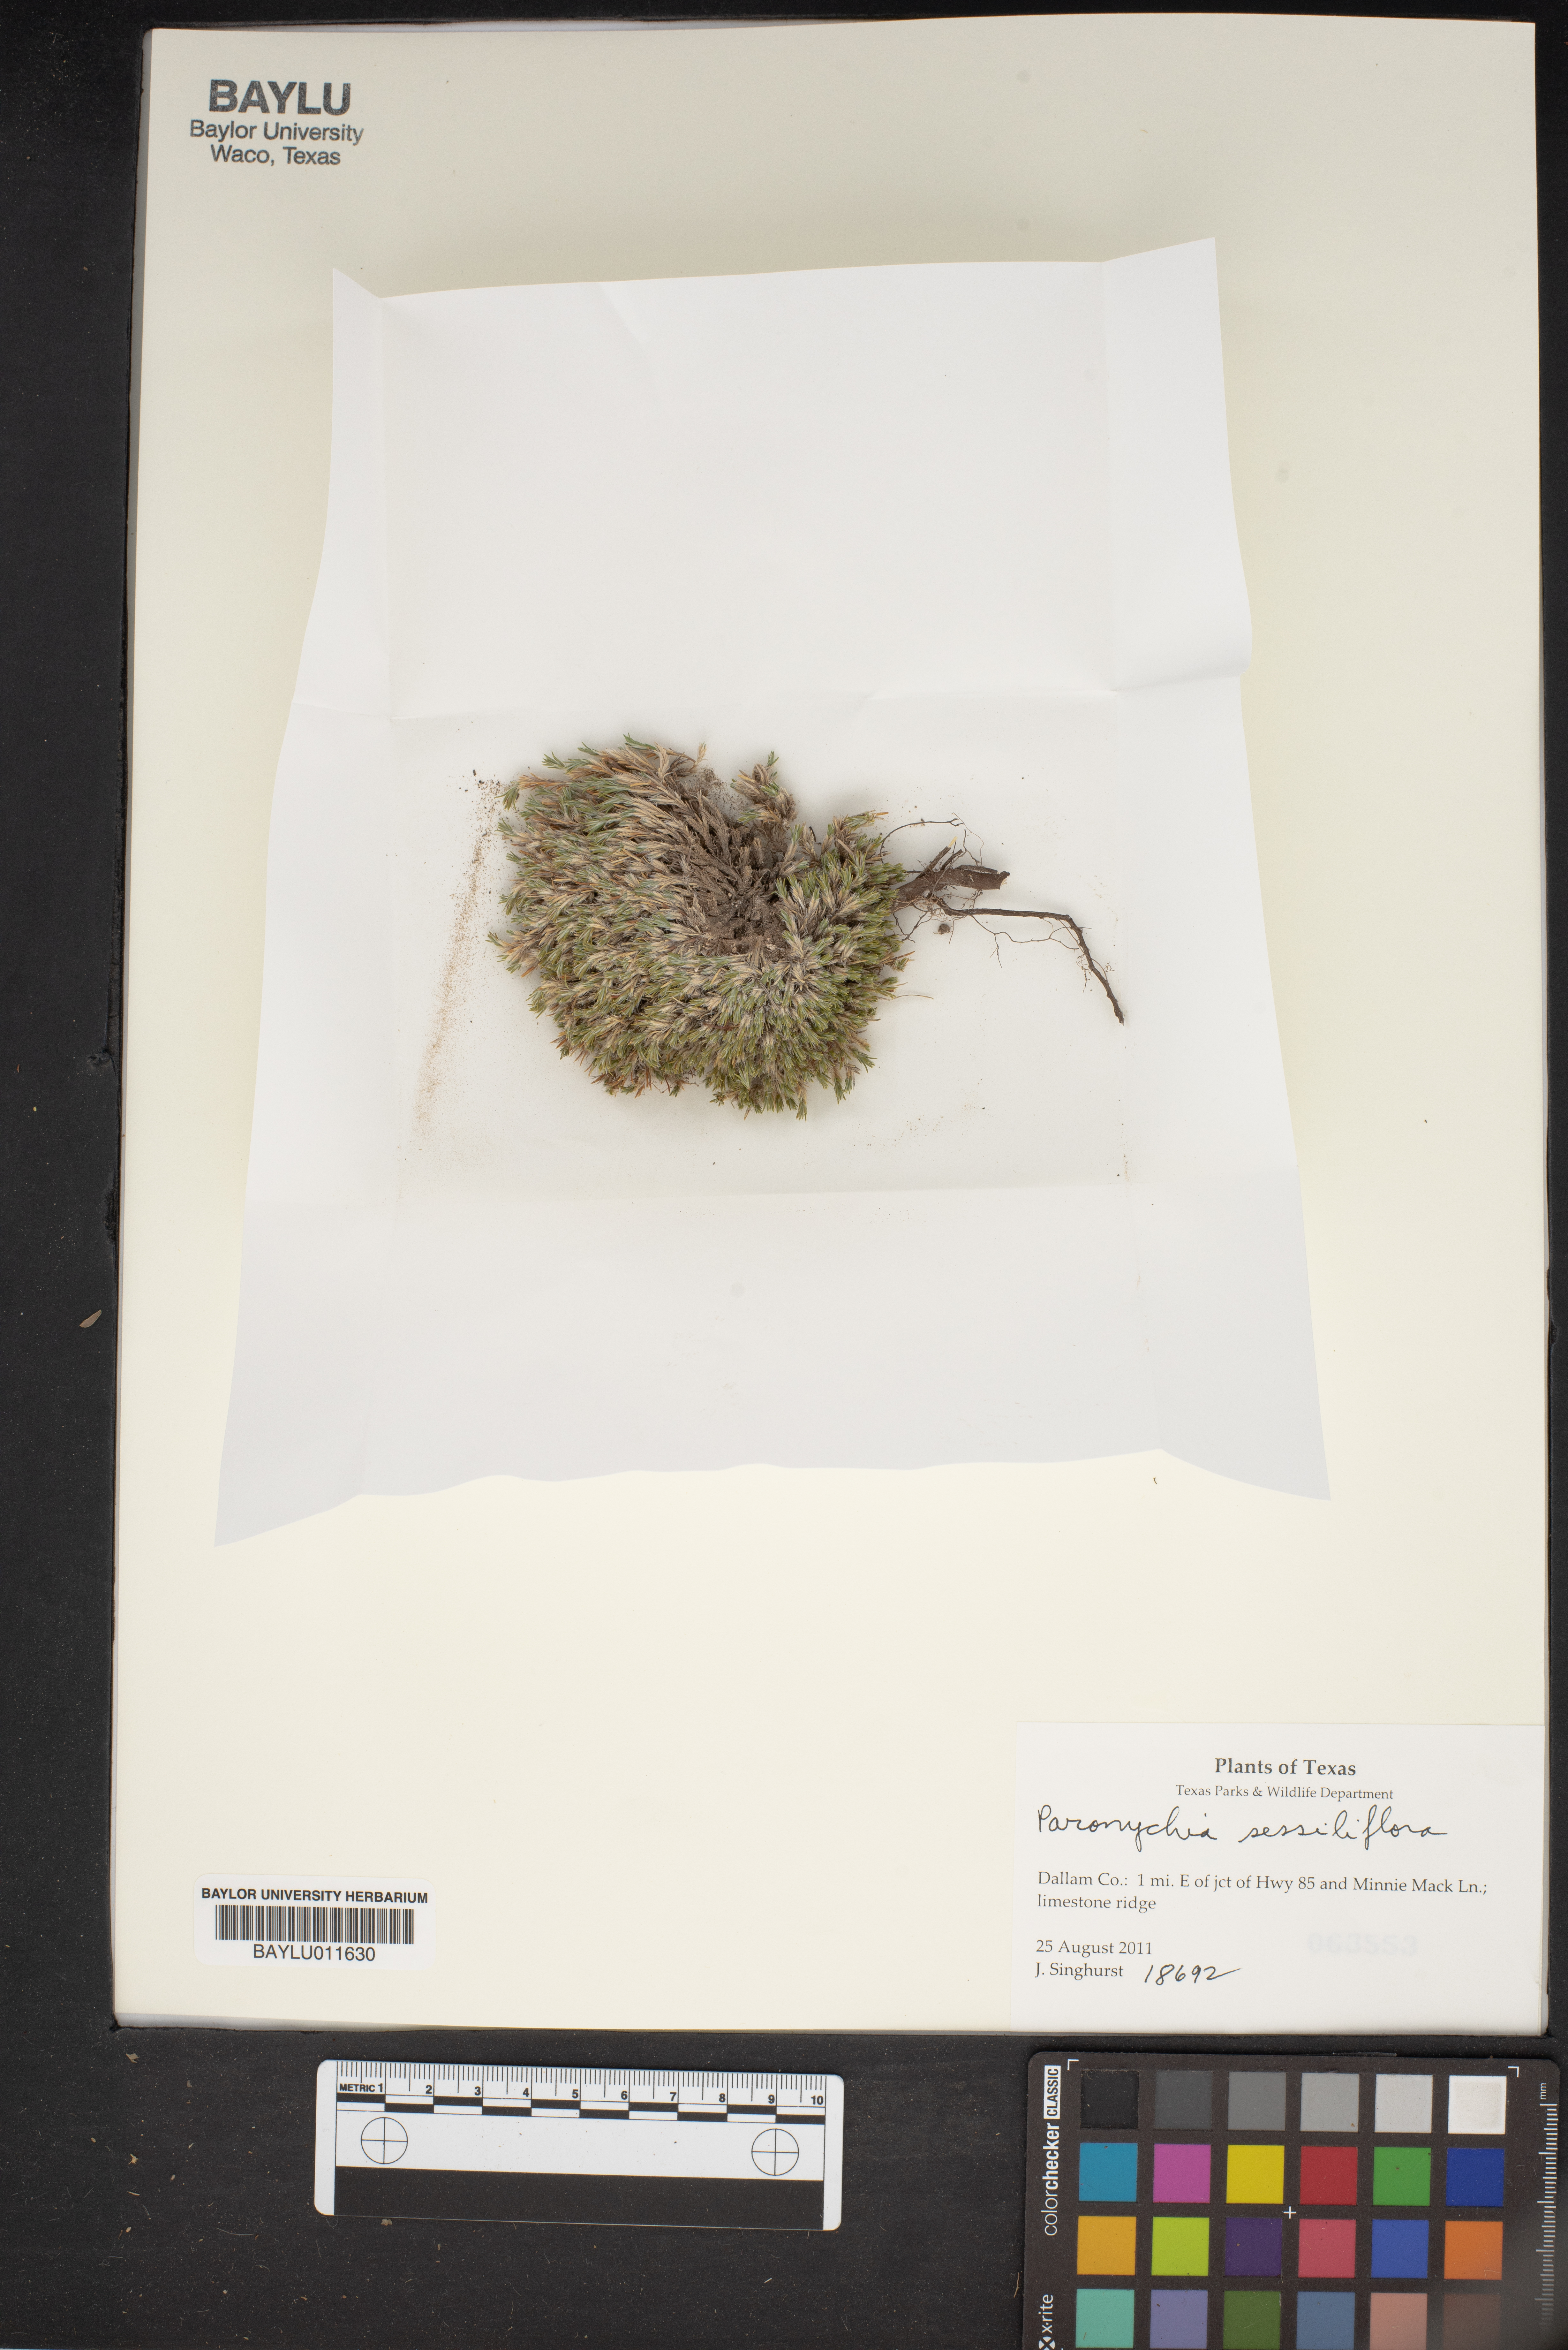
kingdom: Plantae
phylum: Tracheophyta
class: Magnoliopsida
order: Caryophyllales
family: Caryophyllaceae
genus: Paronychia
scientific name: Paronychia sessiliflora
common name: Creeping nailwort
